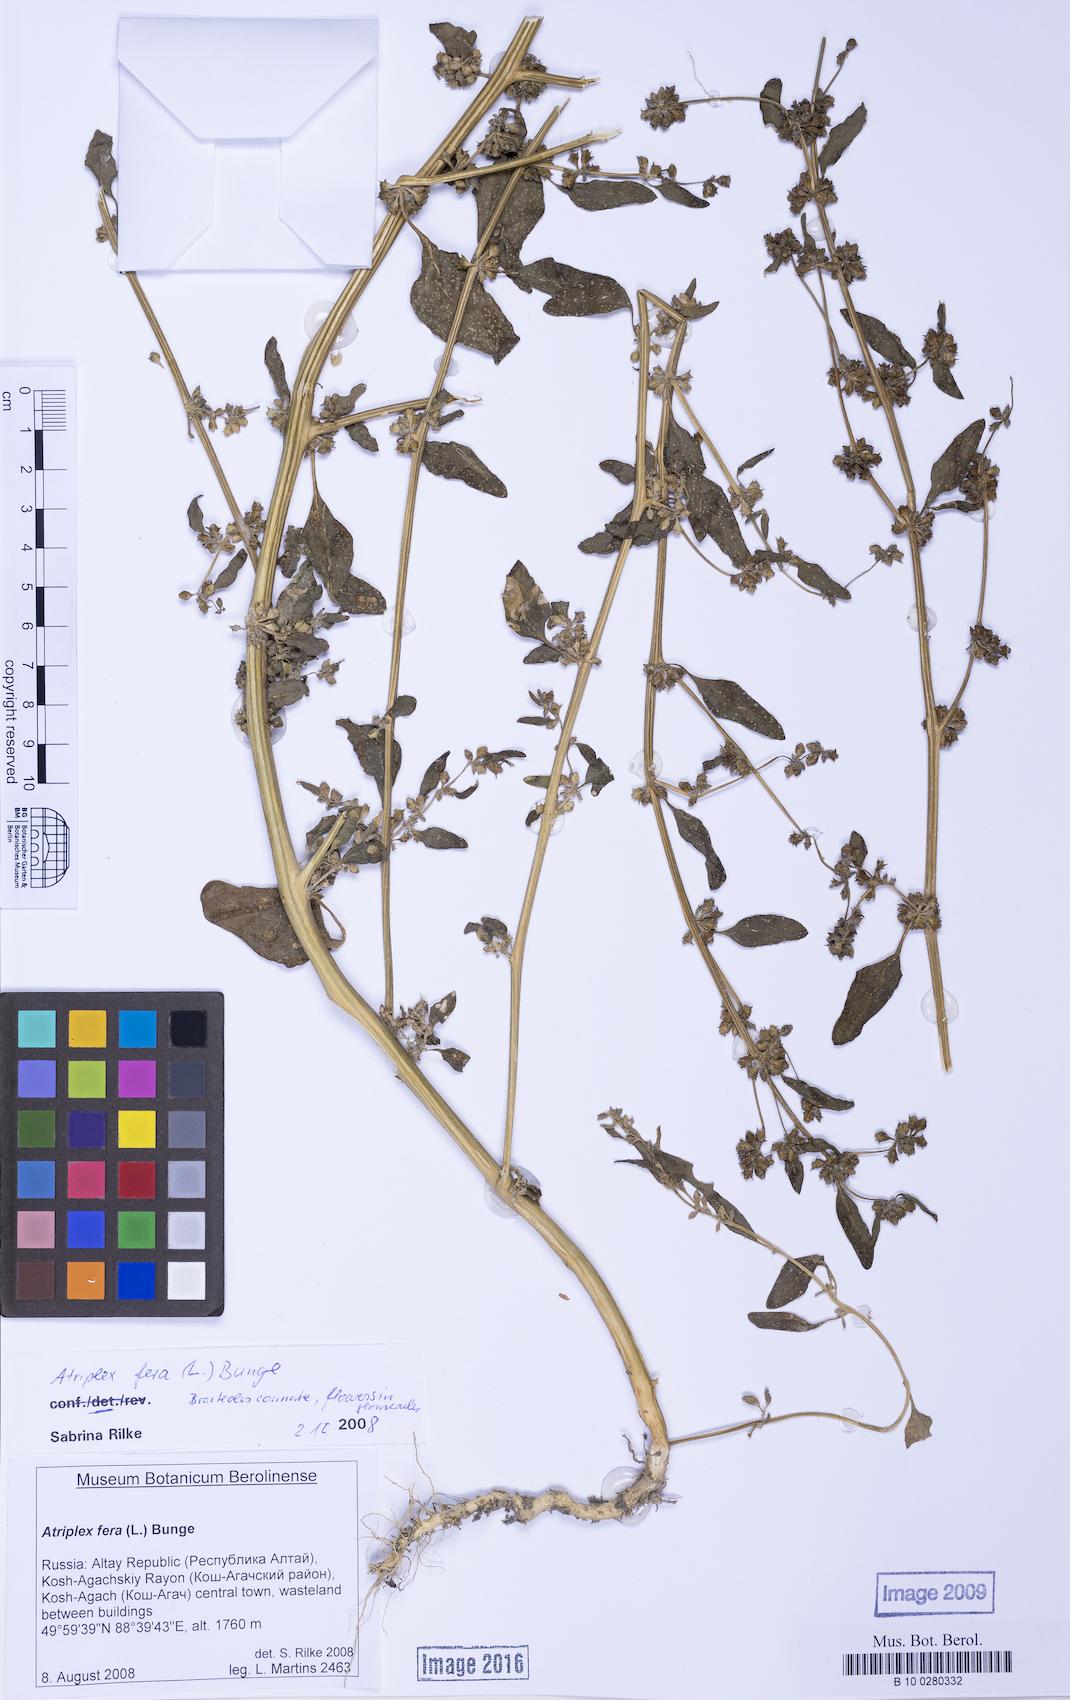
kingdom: Plantae
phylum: Tracheophyta
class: Magnoliopsida
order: Caryophyllales
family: Amaranthaceae
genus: Atriplex
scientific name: Atriplex fera
